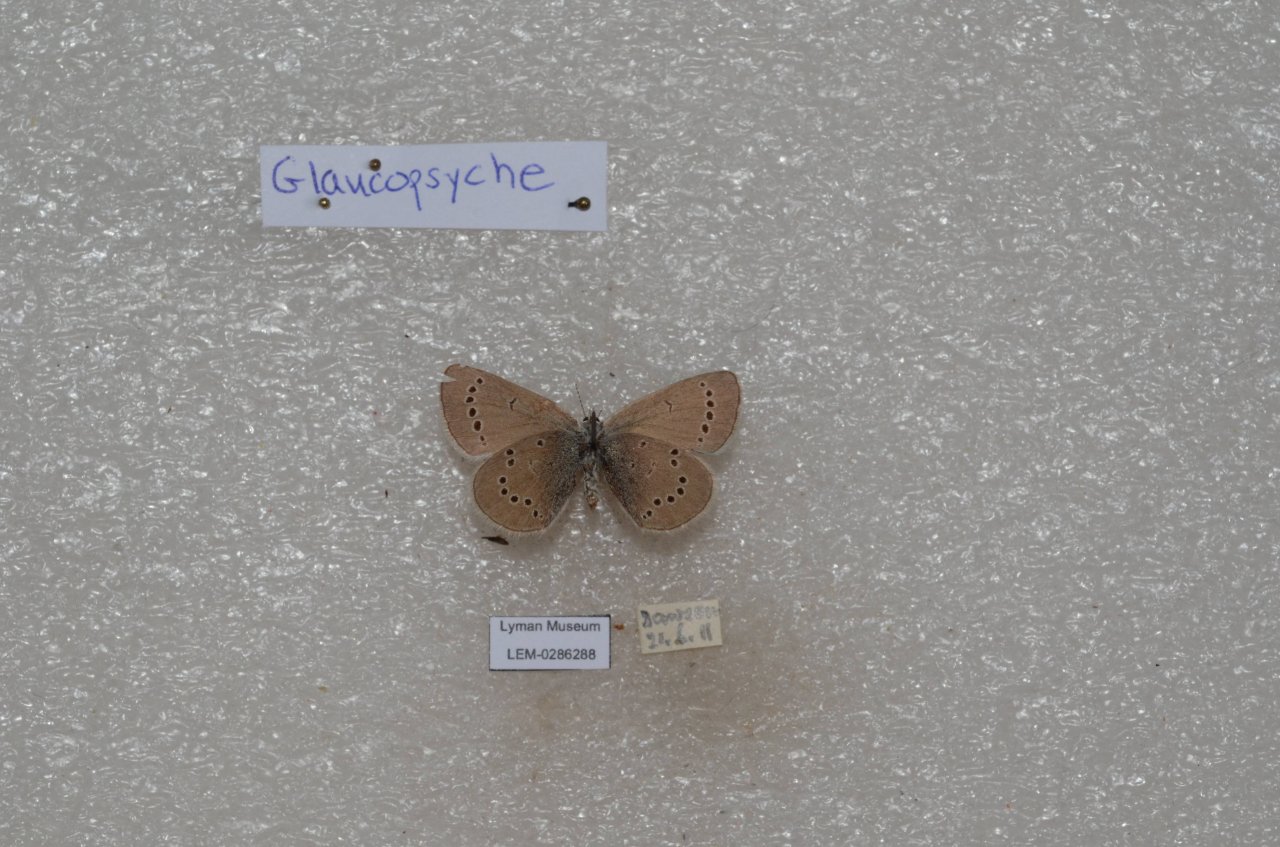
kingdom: Animalia
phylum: Arthropoda
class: Insecta
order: Lepidoptera
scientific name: Lepidoptera
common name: Butterflies
